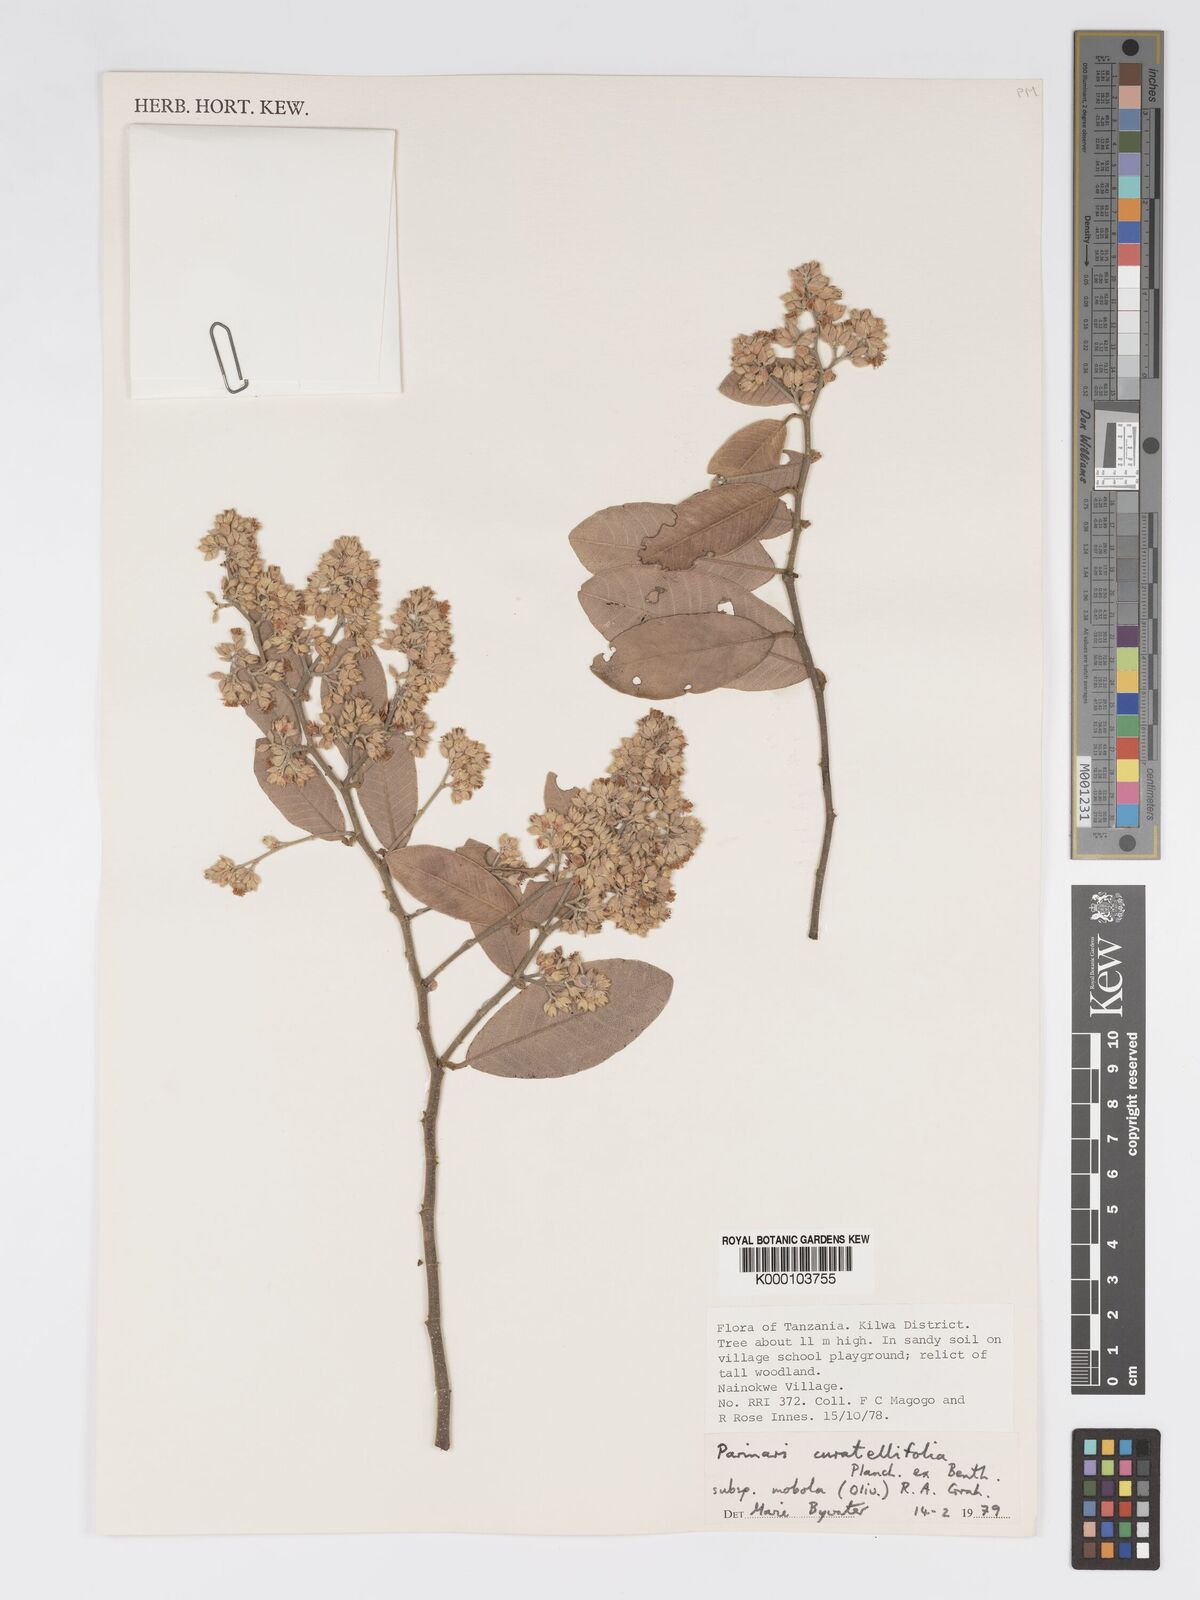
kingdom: Plantae
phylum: Tracheophyta
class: Magnoliopsida
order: Malpighiales
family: Chrysobalanaceae
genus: Parinari
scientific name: Parinari curatellifolia
